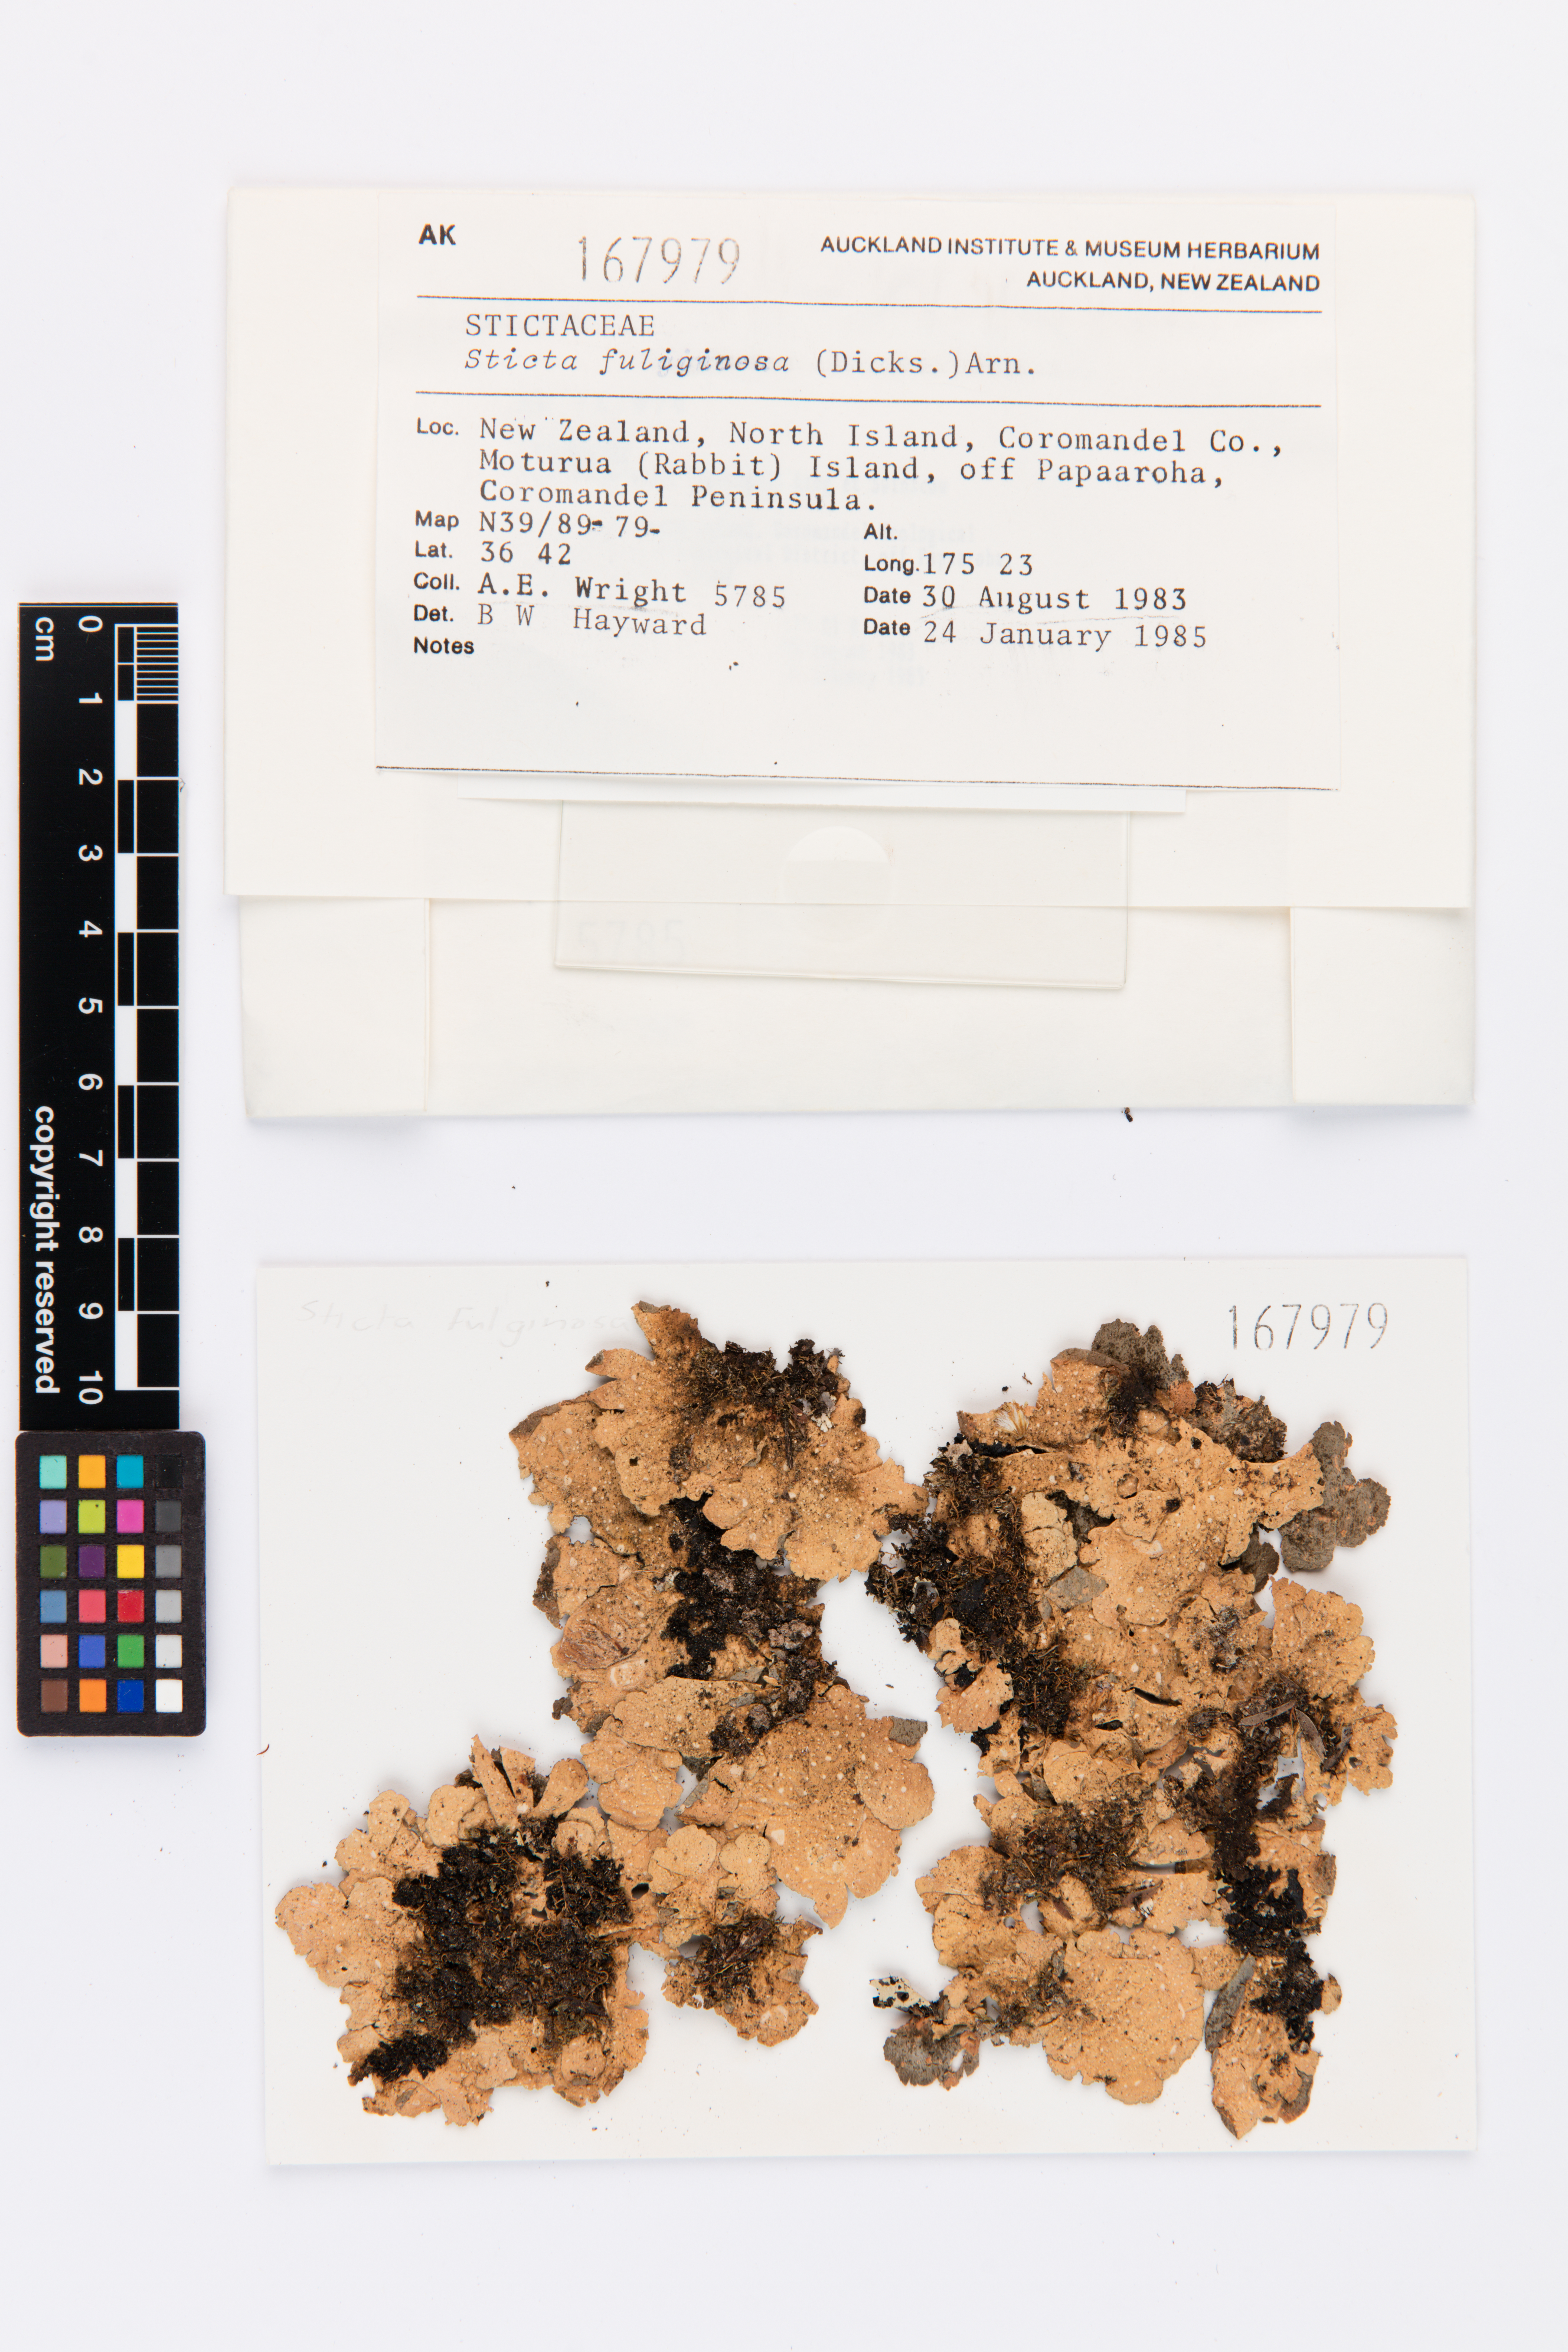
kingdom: Fungi
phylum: Ascomycota
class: Lecanoromycetes
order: Lecanorales
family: Ramalinaceae
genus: Ramalina
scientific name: Ramalina celastri
